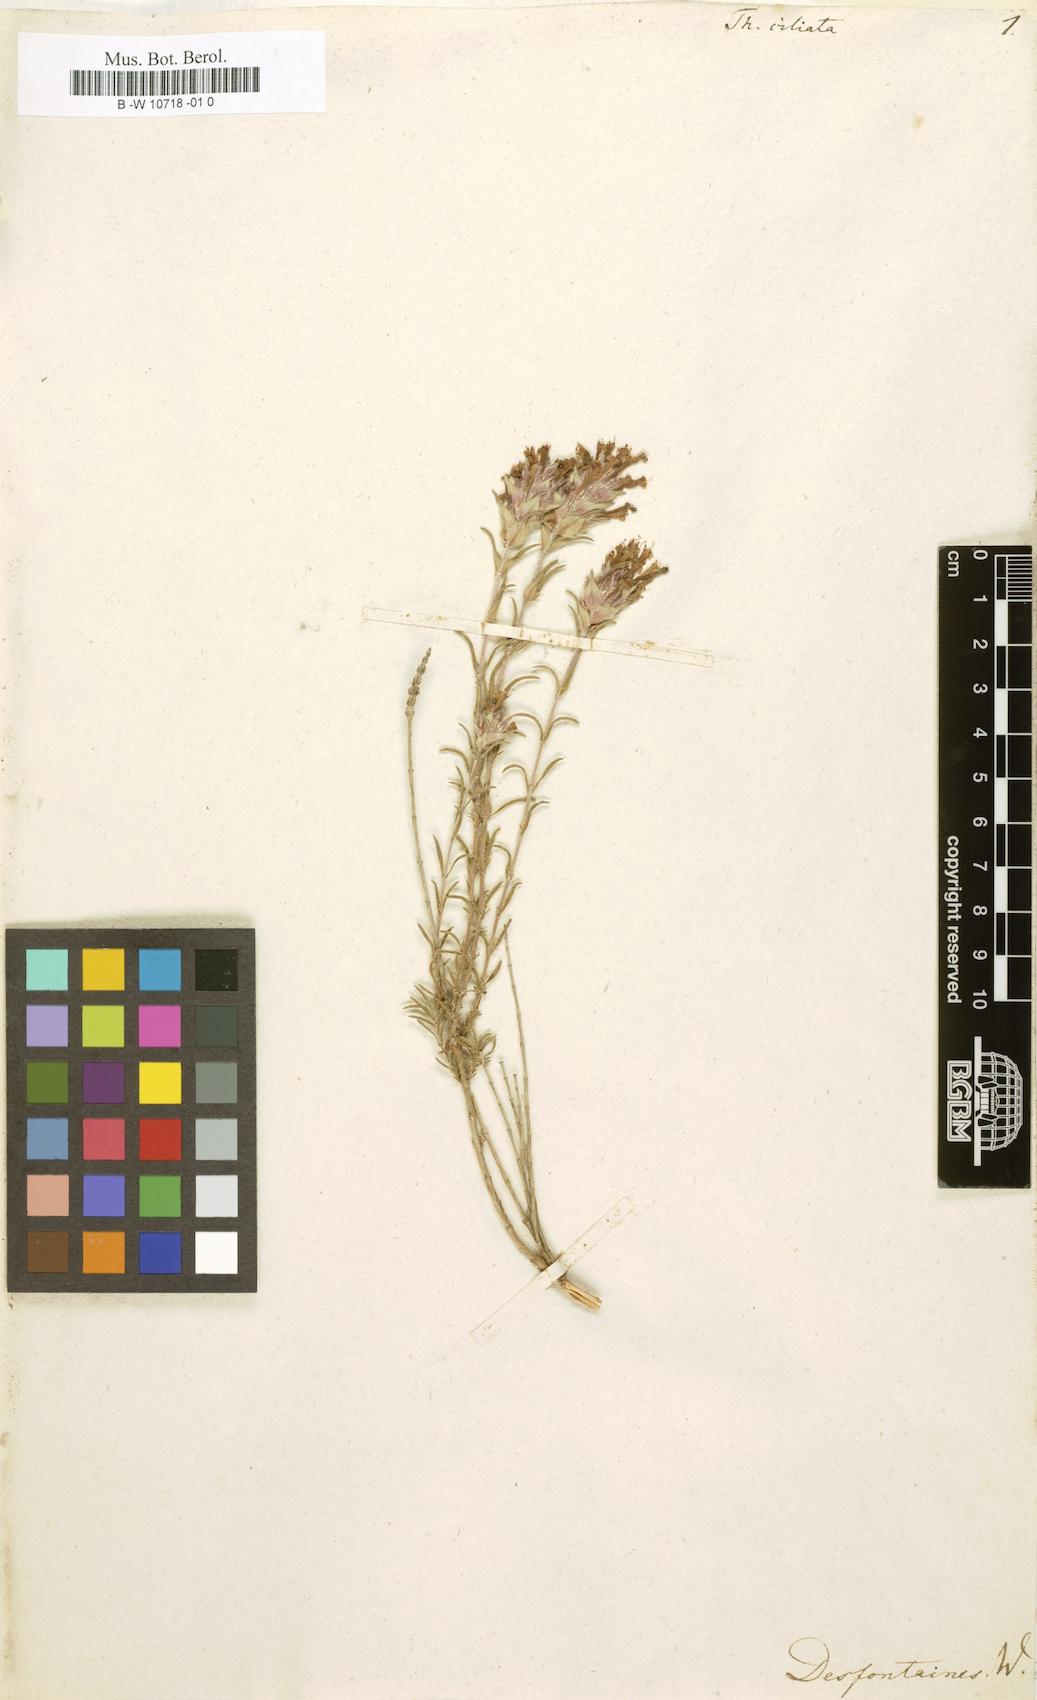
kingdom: Plantae
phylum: Tracheophyta
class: Magnoliopsida
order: Lamiales
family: Lamiaceae
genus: Thymus
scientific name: Thymus
